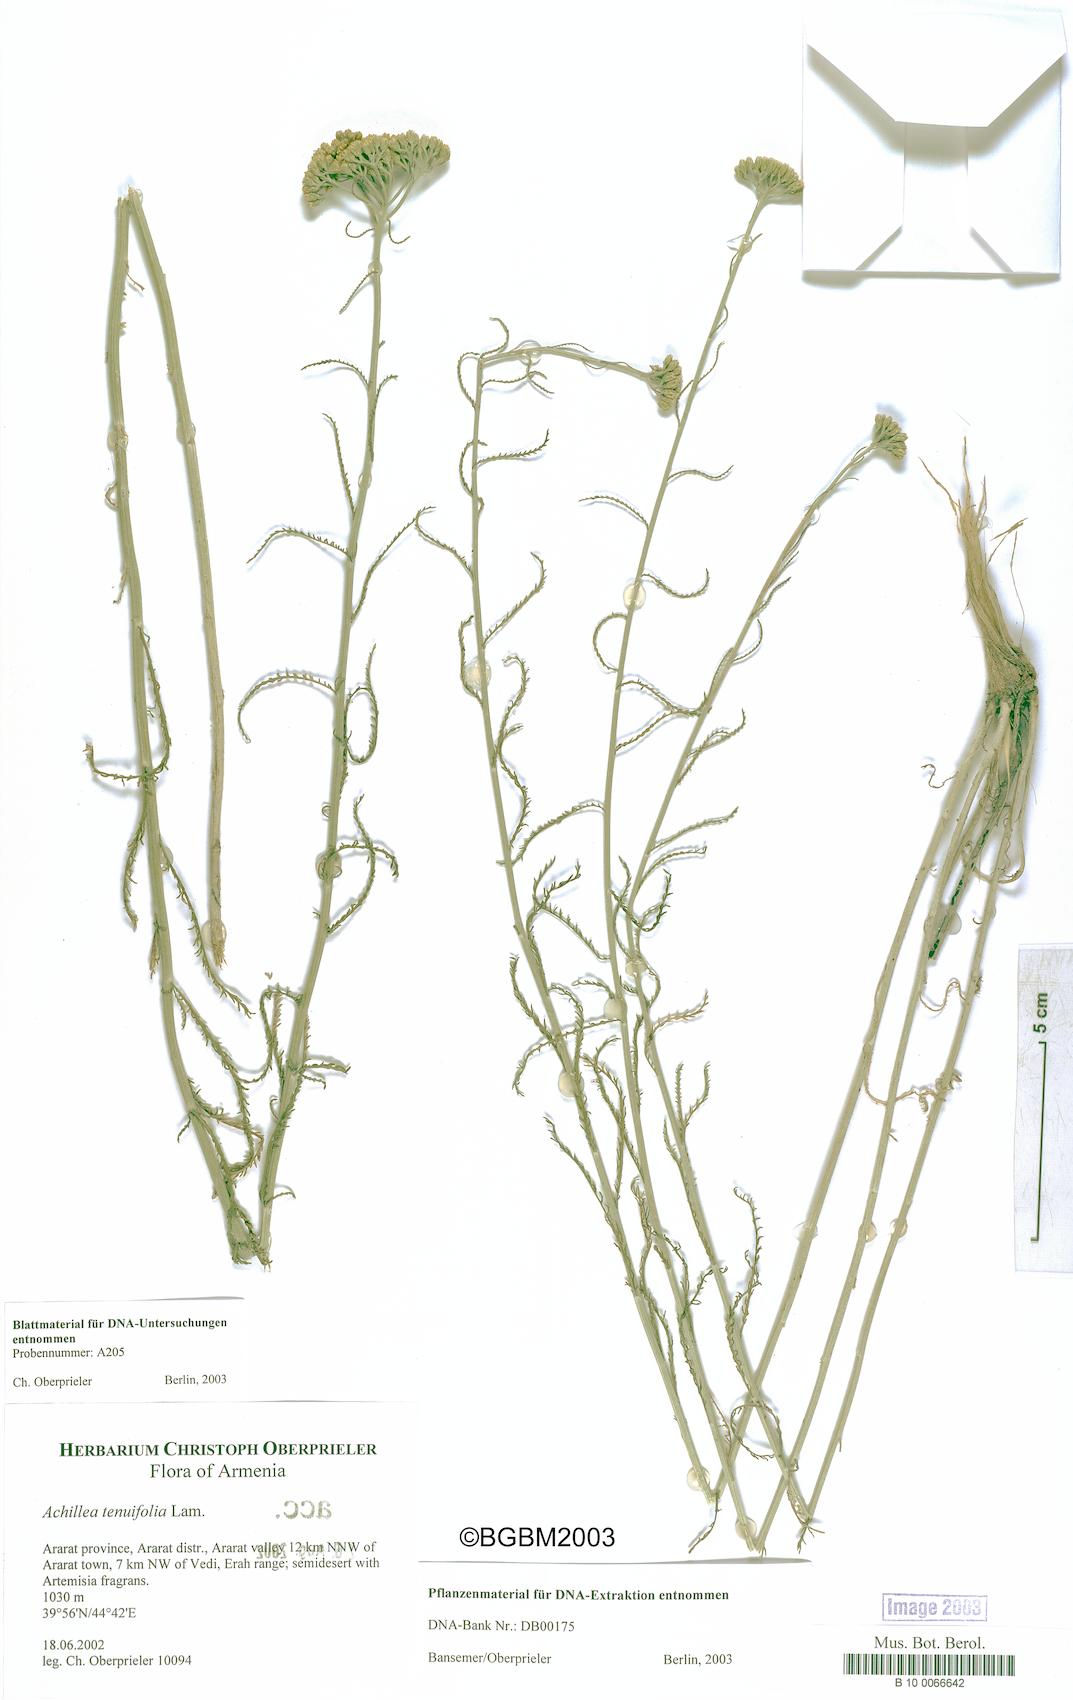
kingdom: Plantae
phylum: Tracheophyta
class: Magnoliopsida
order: Asterales
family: Asteraceae
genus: Achillea
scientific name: Achillea tenuifolia
